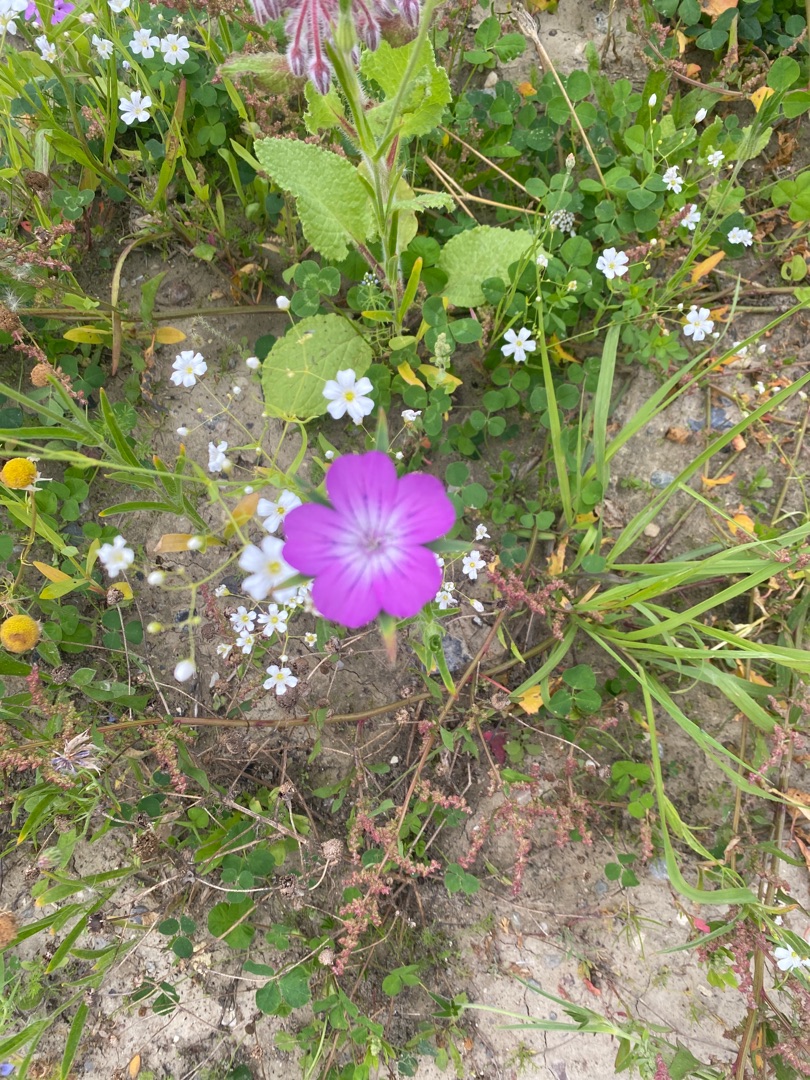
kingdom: Plantae
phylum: Tracheophyta
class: Magnoliopsida
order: Caryophyllales
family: Caryophyllaceae
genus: Agrostemma
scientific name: Agrostemma githago
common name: Klinte
